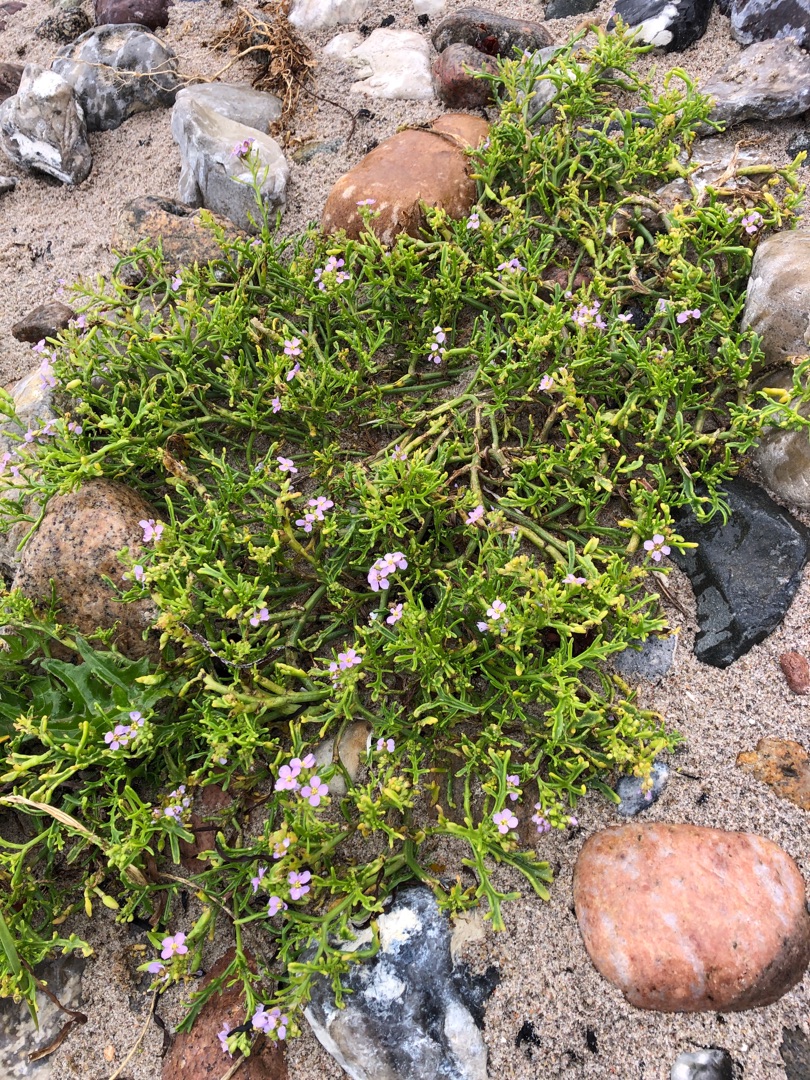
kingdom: Plantae
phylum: Tracheophyta
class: Magnoliopsida
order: Brassicales
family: Brassicaceae
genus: Cakile
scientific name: Cakile maritima
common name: Strandsennep
